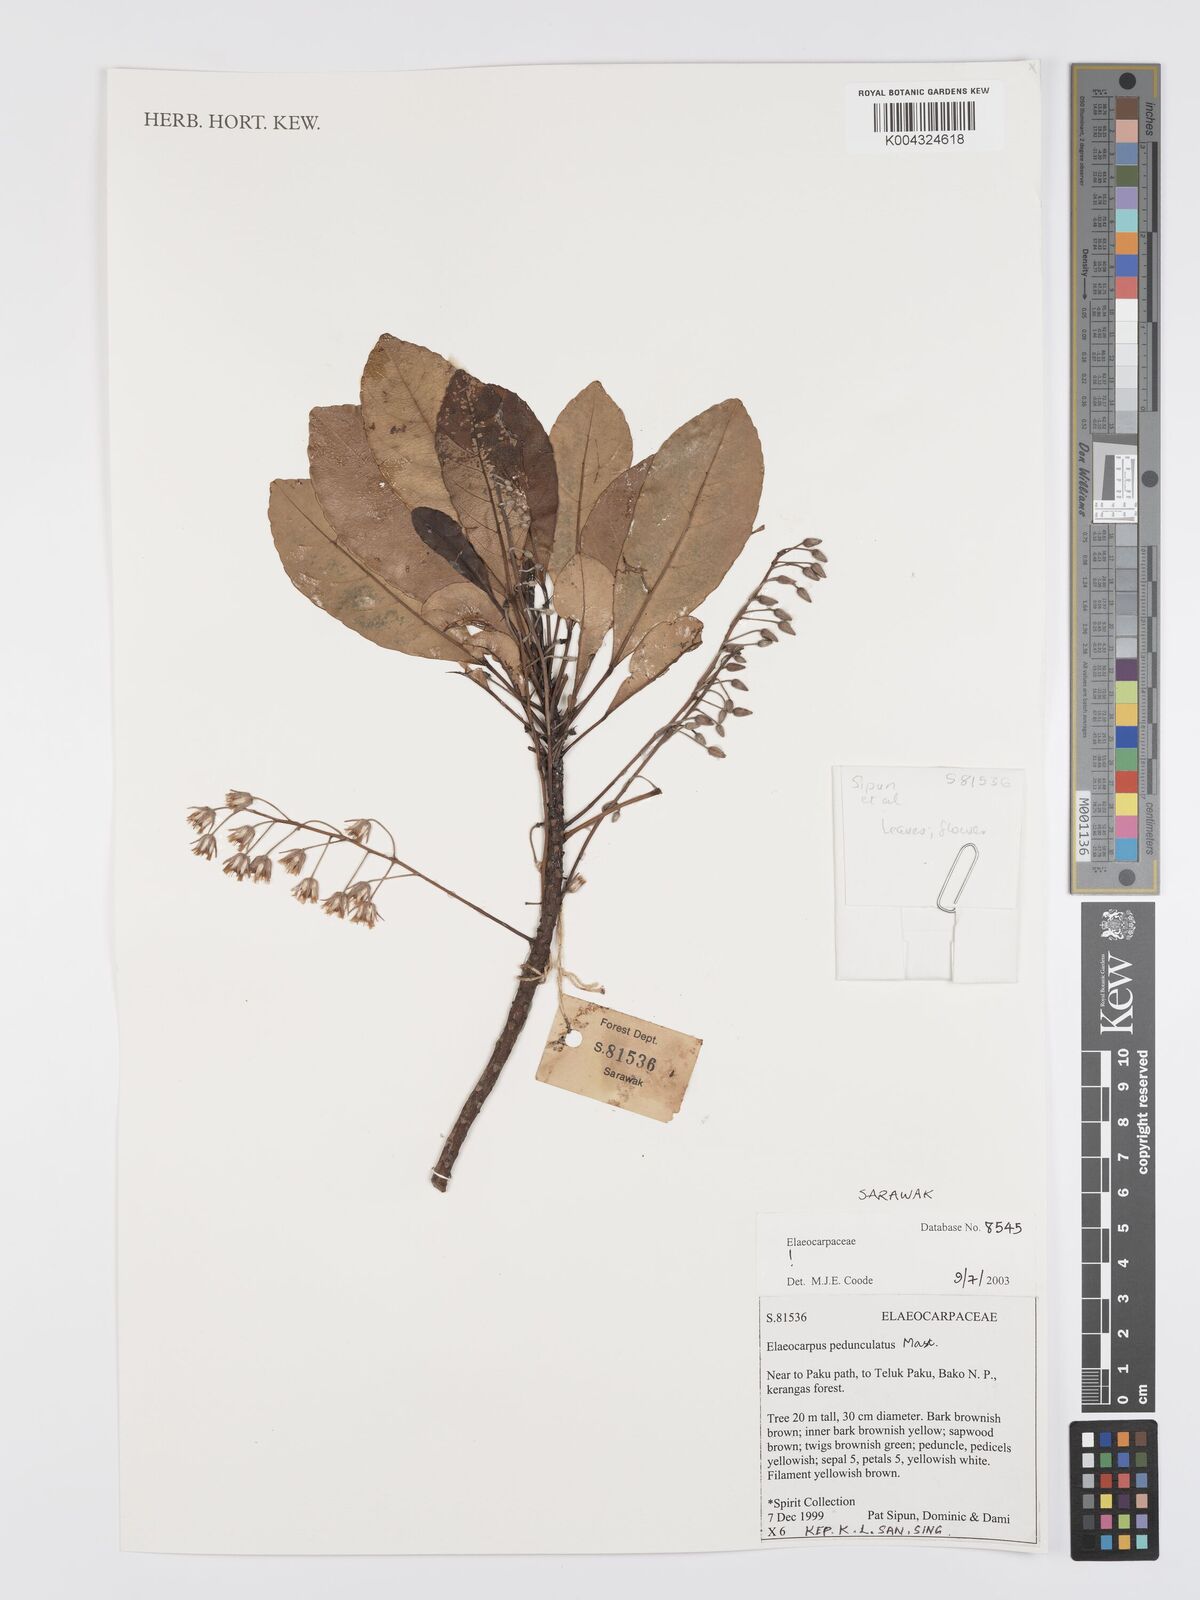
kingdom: Plantae
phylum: Tracheophyta
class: Magnoliopsida
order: Oxalidales
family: Elaeocarpaceae
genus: Elaeocarpus
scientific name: Elaeocarpus pedunculatus
